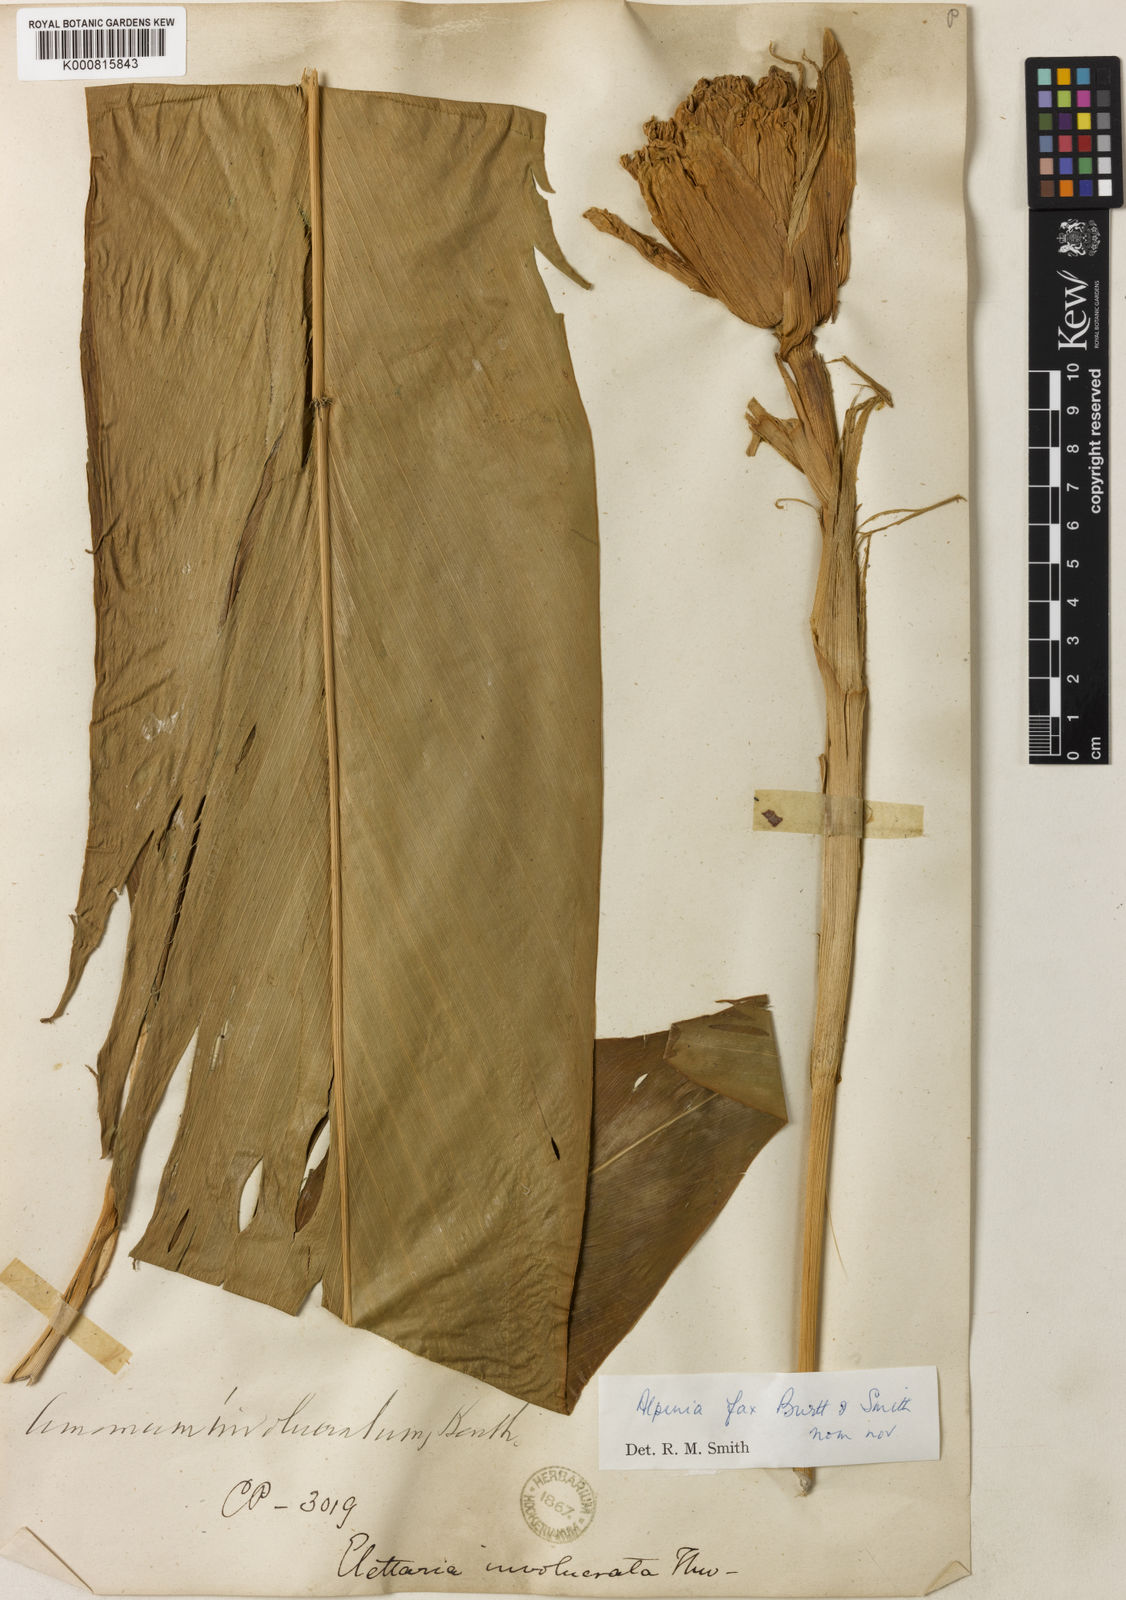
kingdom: Plantae
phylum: Tracheophyta
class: Liliopsida
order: Zingiberales
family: Zingiberaceae
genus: Alpinia
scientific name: Alpinia fax
